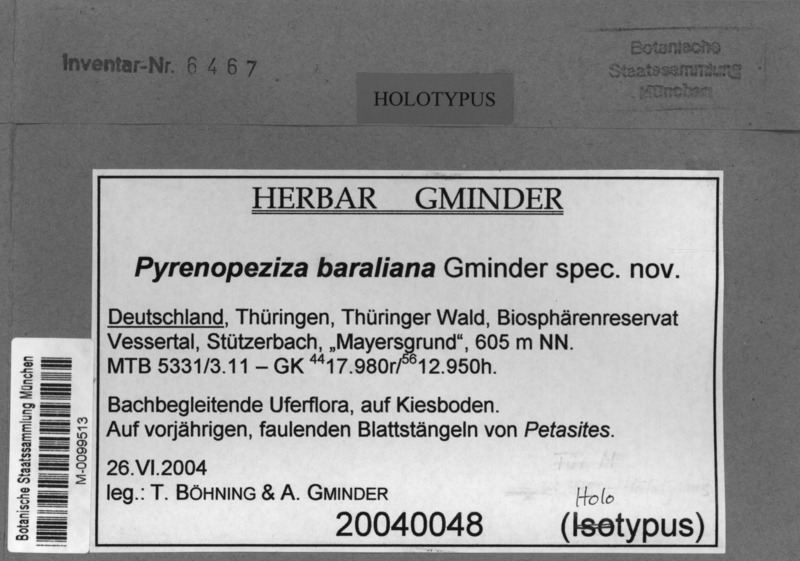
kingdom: Fungi
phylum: Ascomycota
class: Leotiomycetes
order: Helotiales
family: Ploettnerulaceae
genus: Pyrenopeziza
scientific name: Pyrenopeziza baraliana
